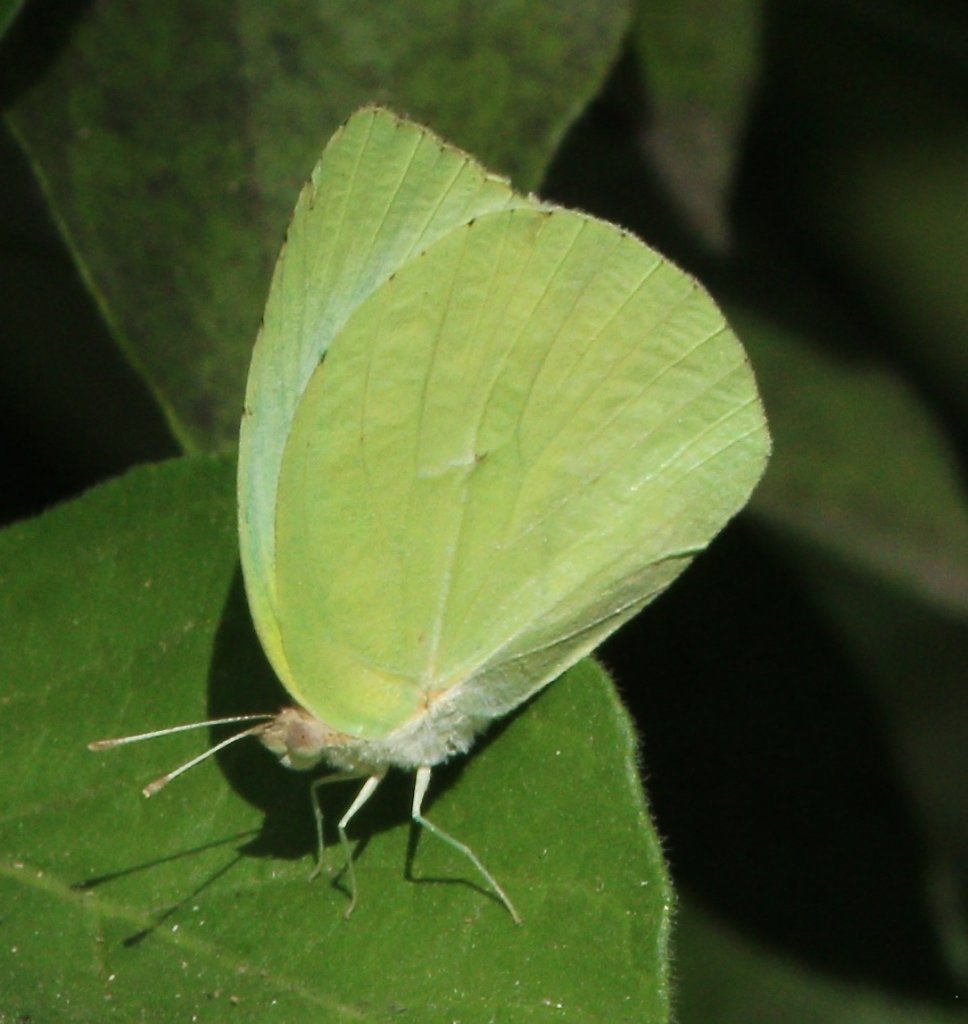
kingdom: Animalia
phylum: Arthropoda
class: Insecta
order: Lepidoptera
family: Pieridae
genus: Kricogonia
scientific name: Kricogonia lyside
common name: Lyside Sulphur
